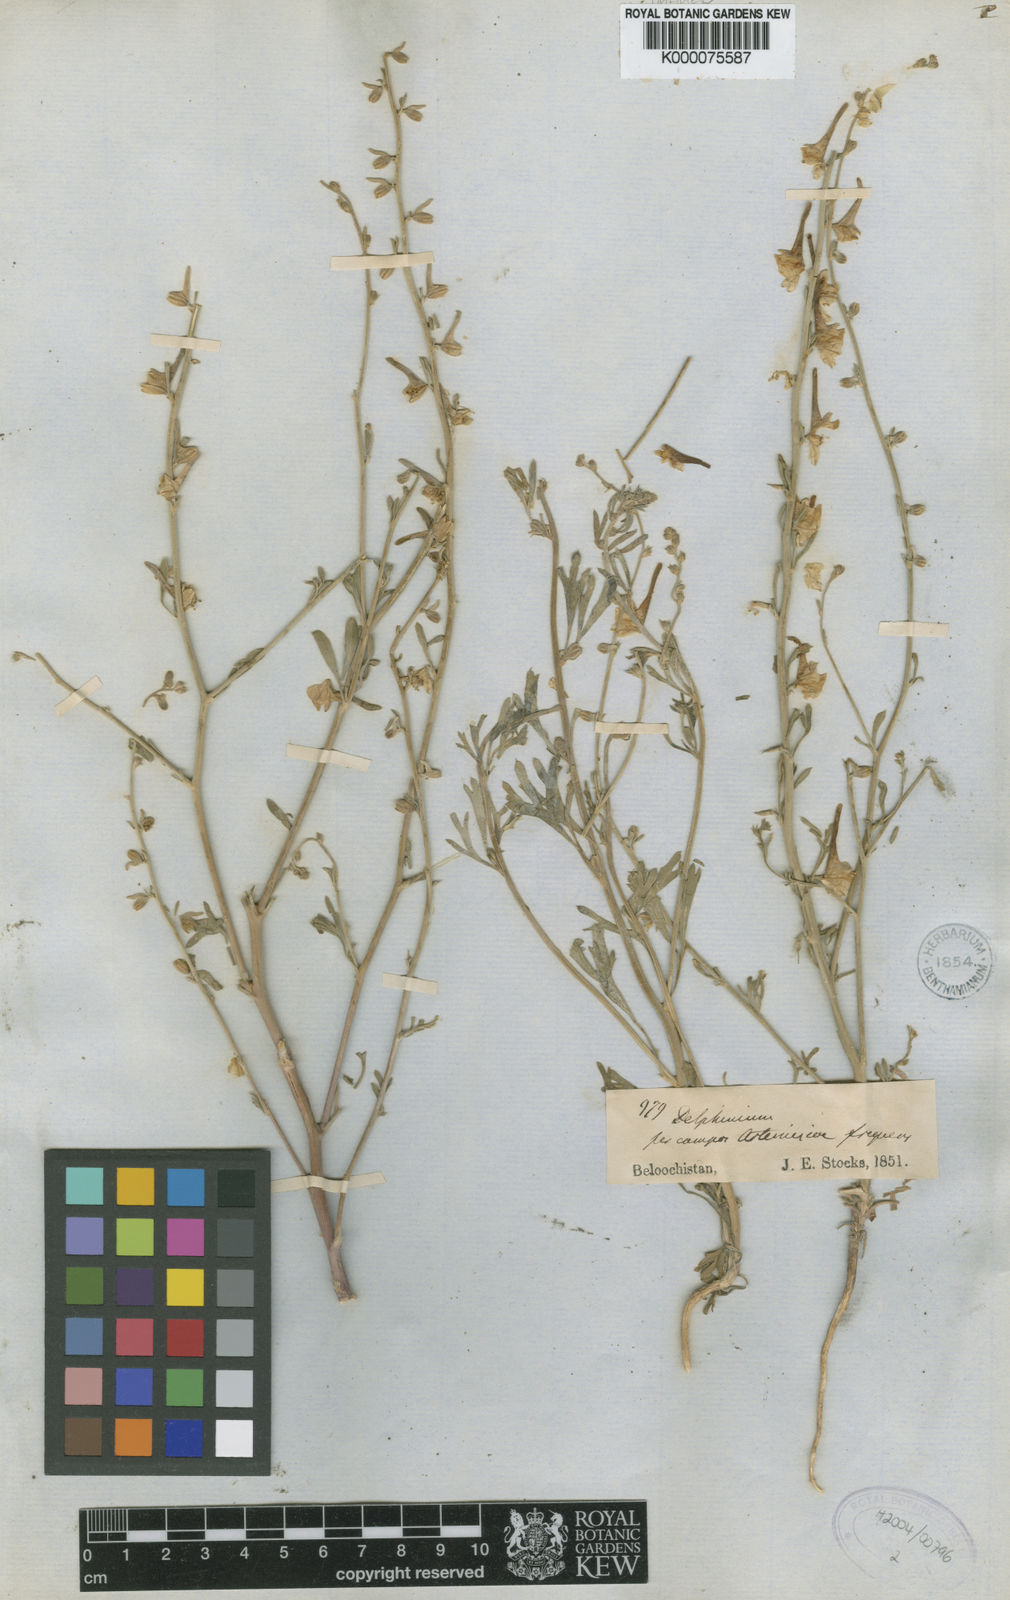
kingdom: Plantae
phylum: Tracheophyta
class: Magnoliopsida
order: Ranunculales
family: Ranunculaceae
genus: Delphinium
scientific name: Delphinium stocksianum
